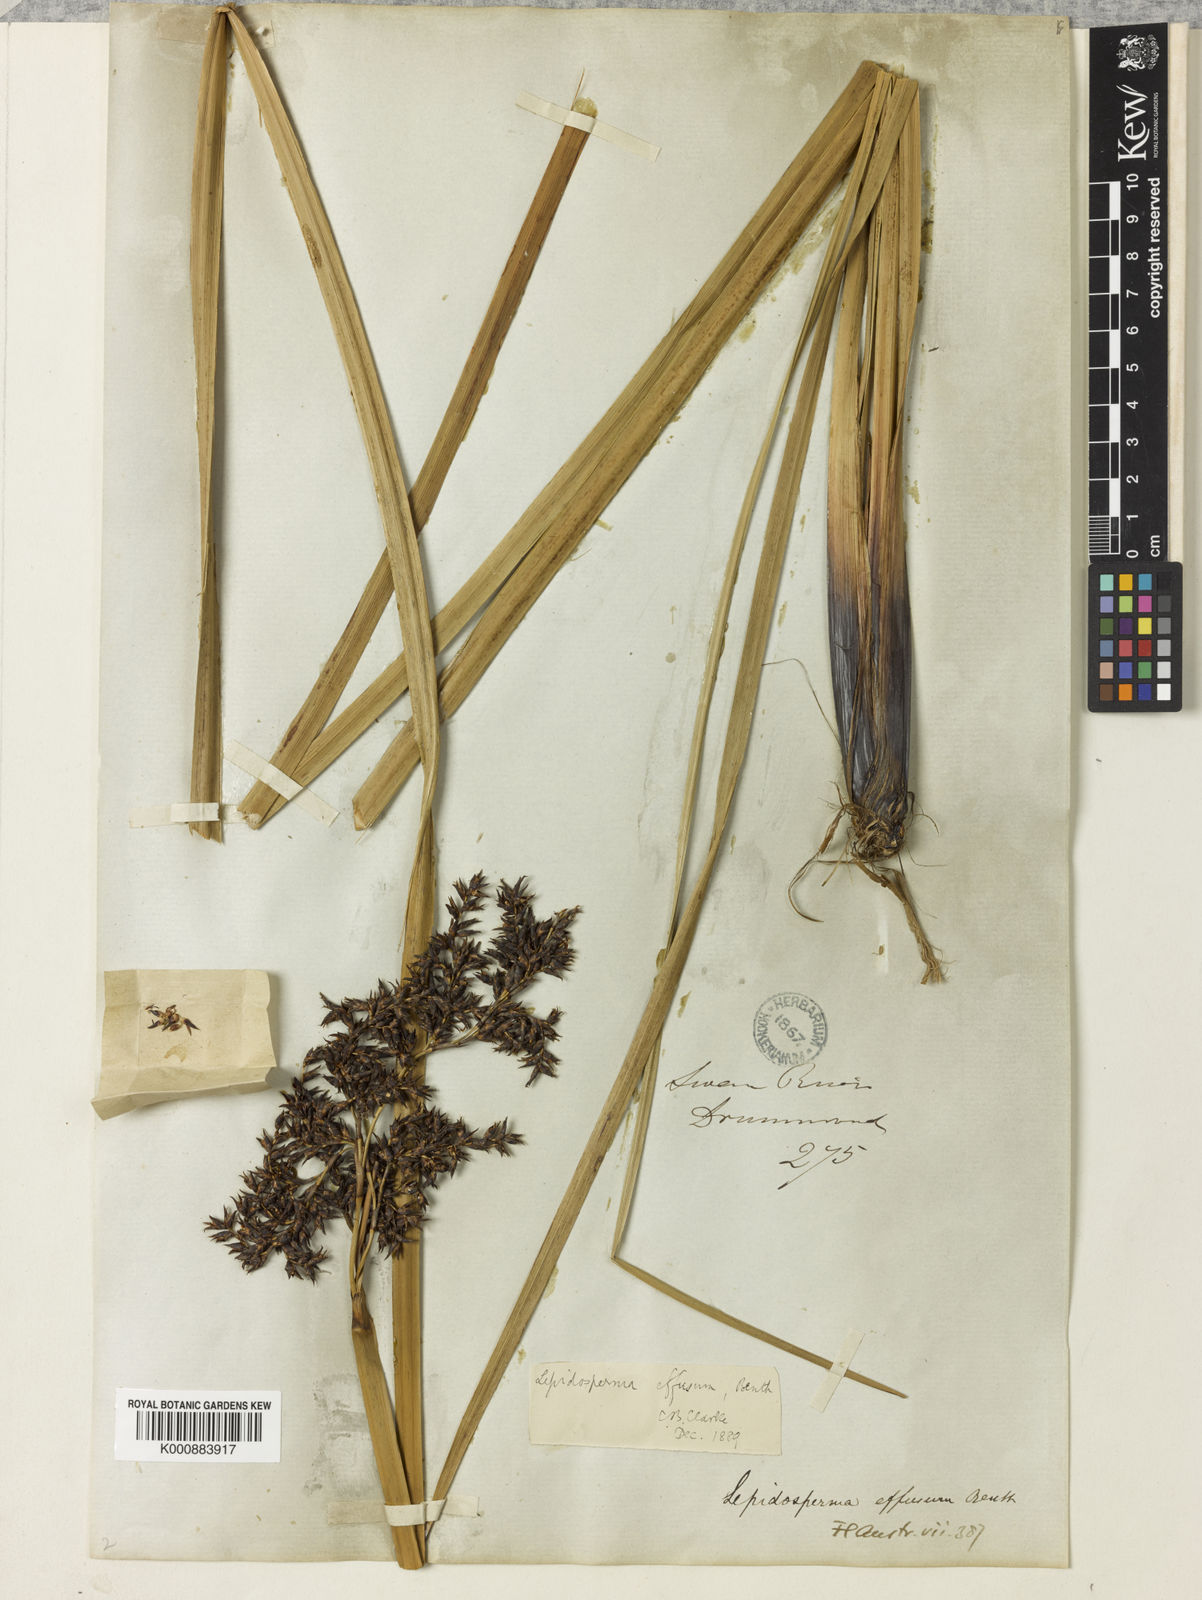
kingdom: Plantae
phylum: Tracheophyta
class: Liliopsida
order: Poales
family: Cyperaceae
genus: Lepidosperma
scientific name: Lepidosperma effusum
